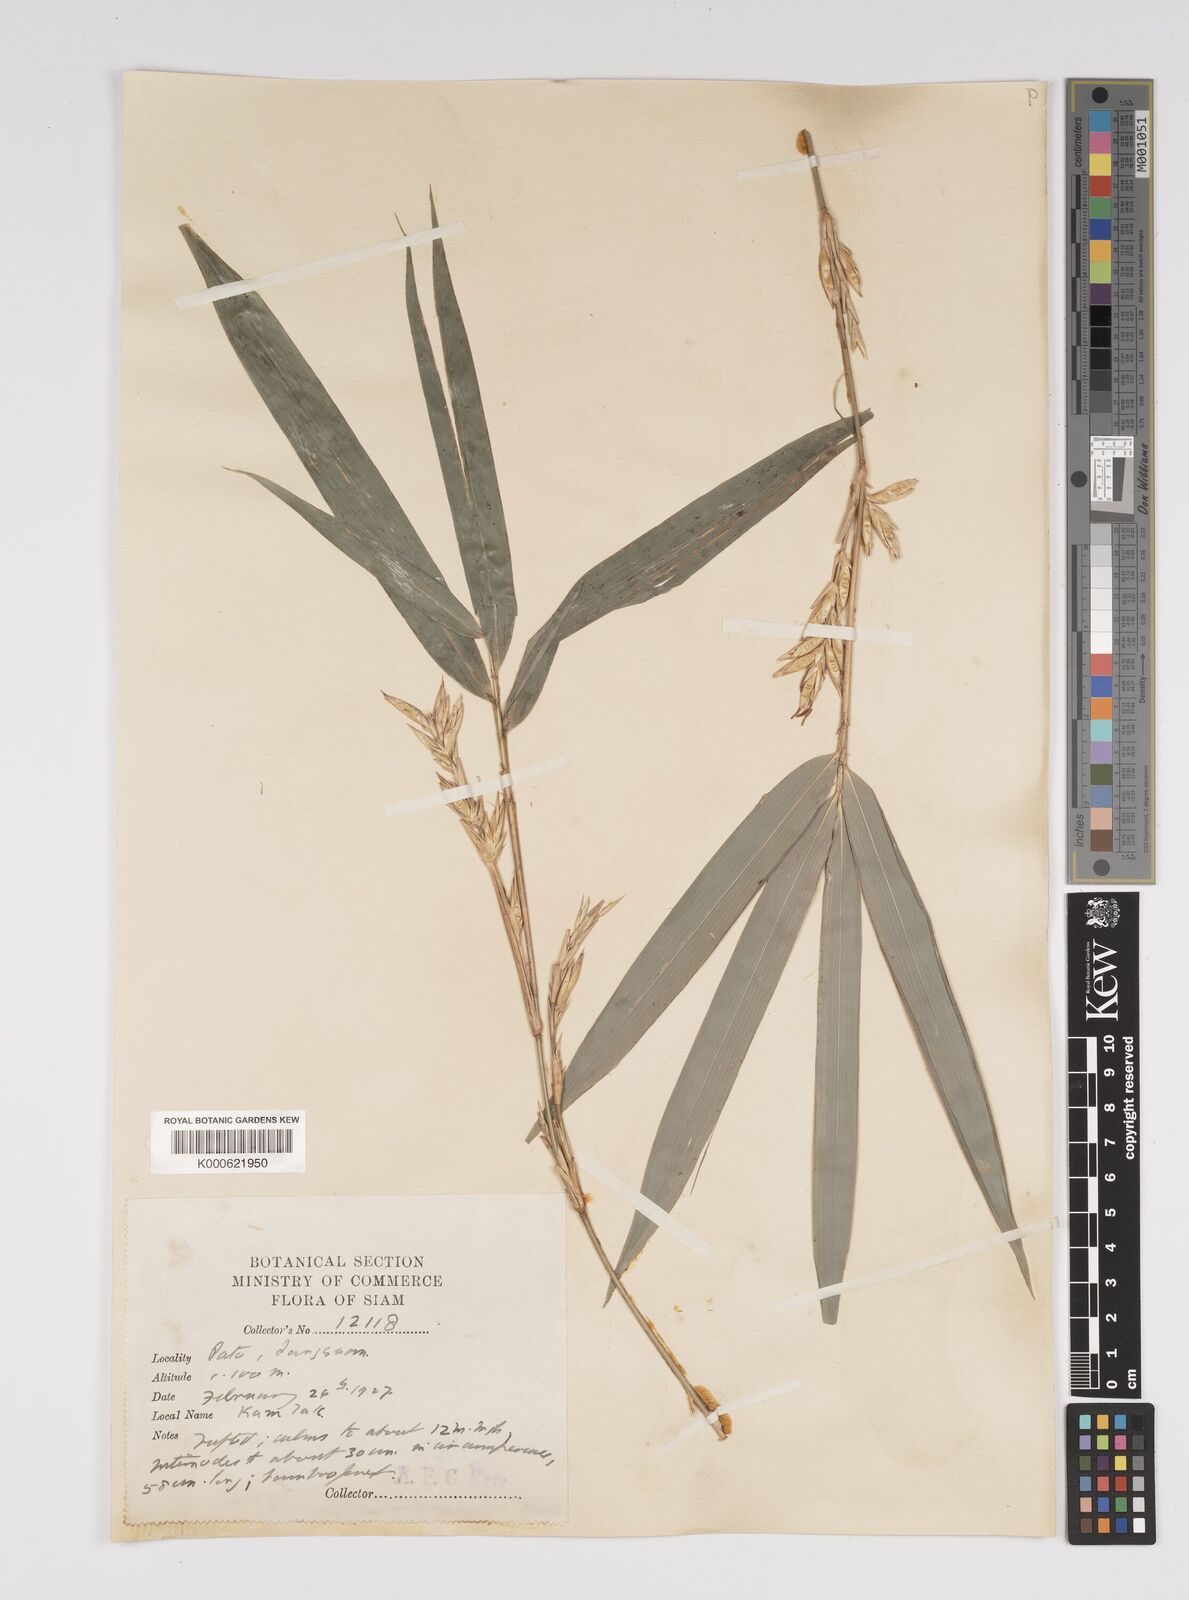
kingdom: Plantae
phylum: Tracheophyta
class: Liliopsida
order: Poales
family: Poaceae
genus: Bambusa
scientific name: Bambusa
